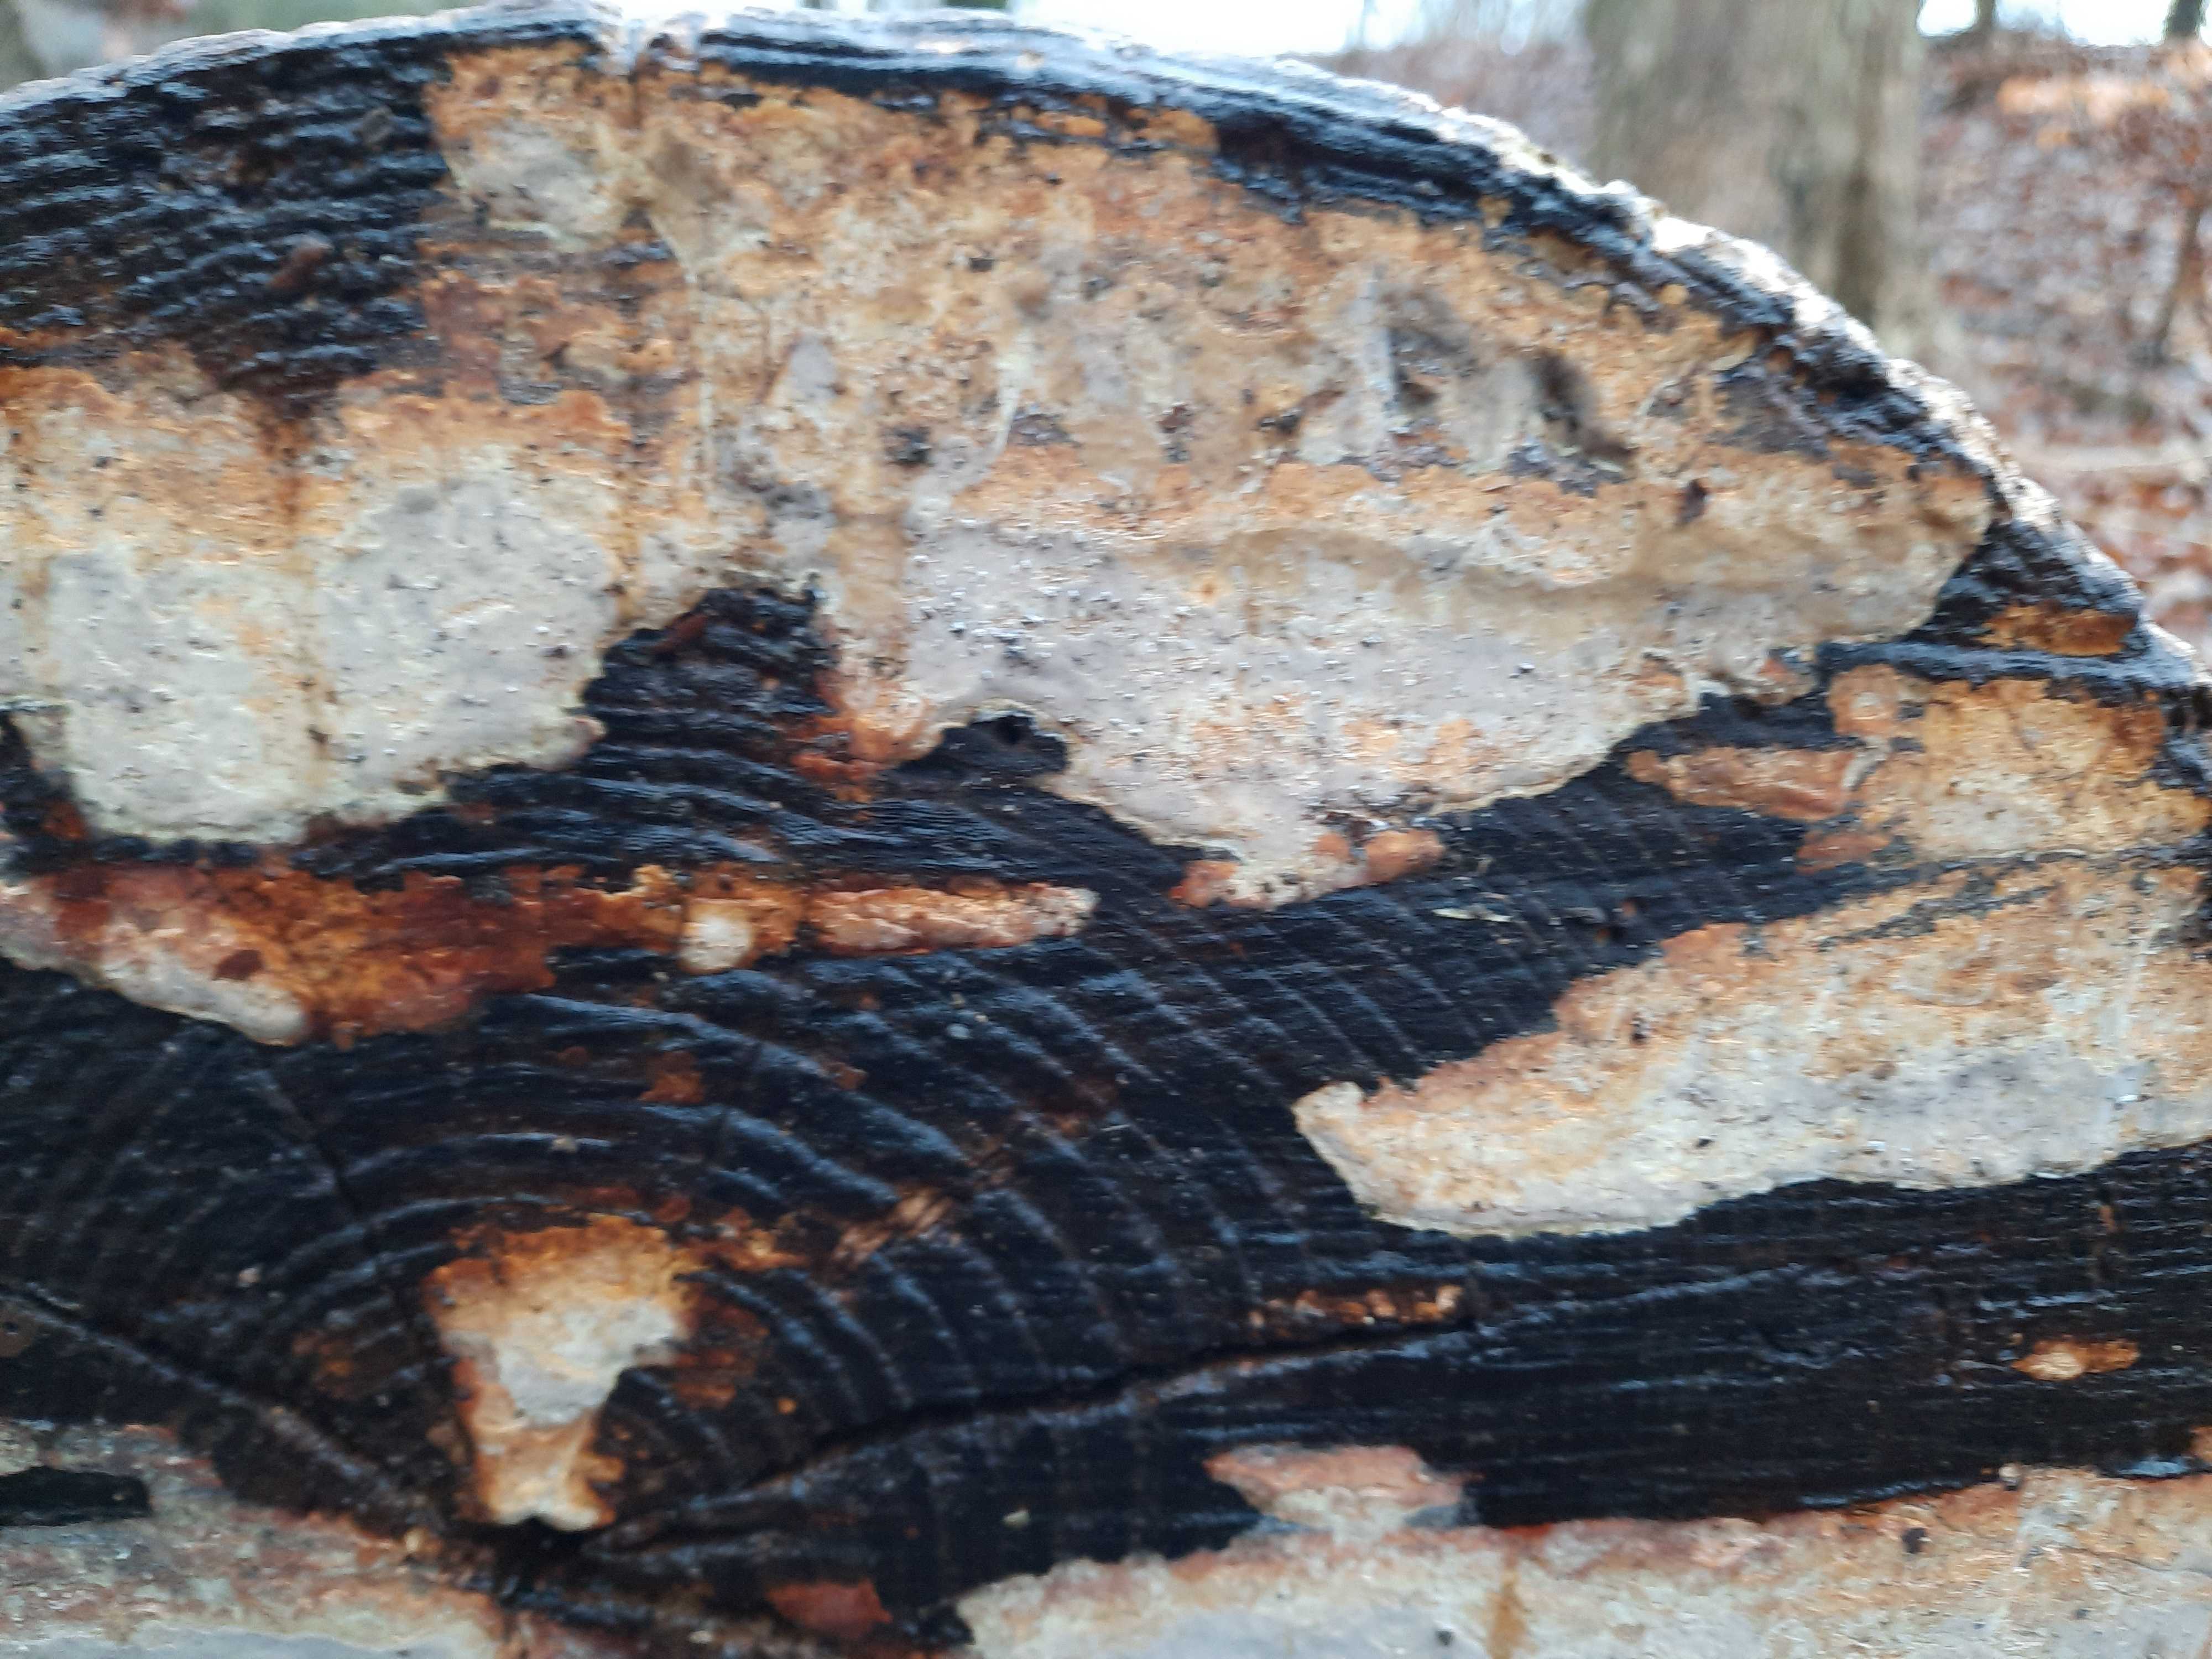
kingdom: Fungi
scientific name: Fungi
